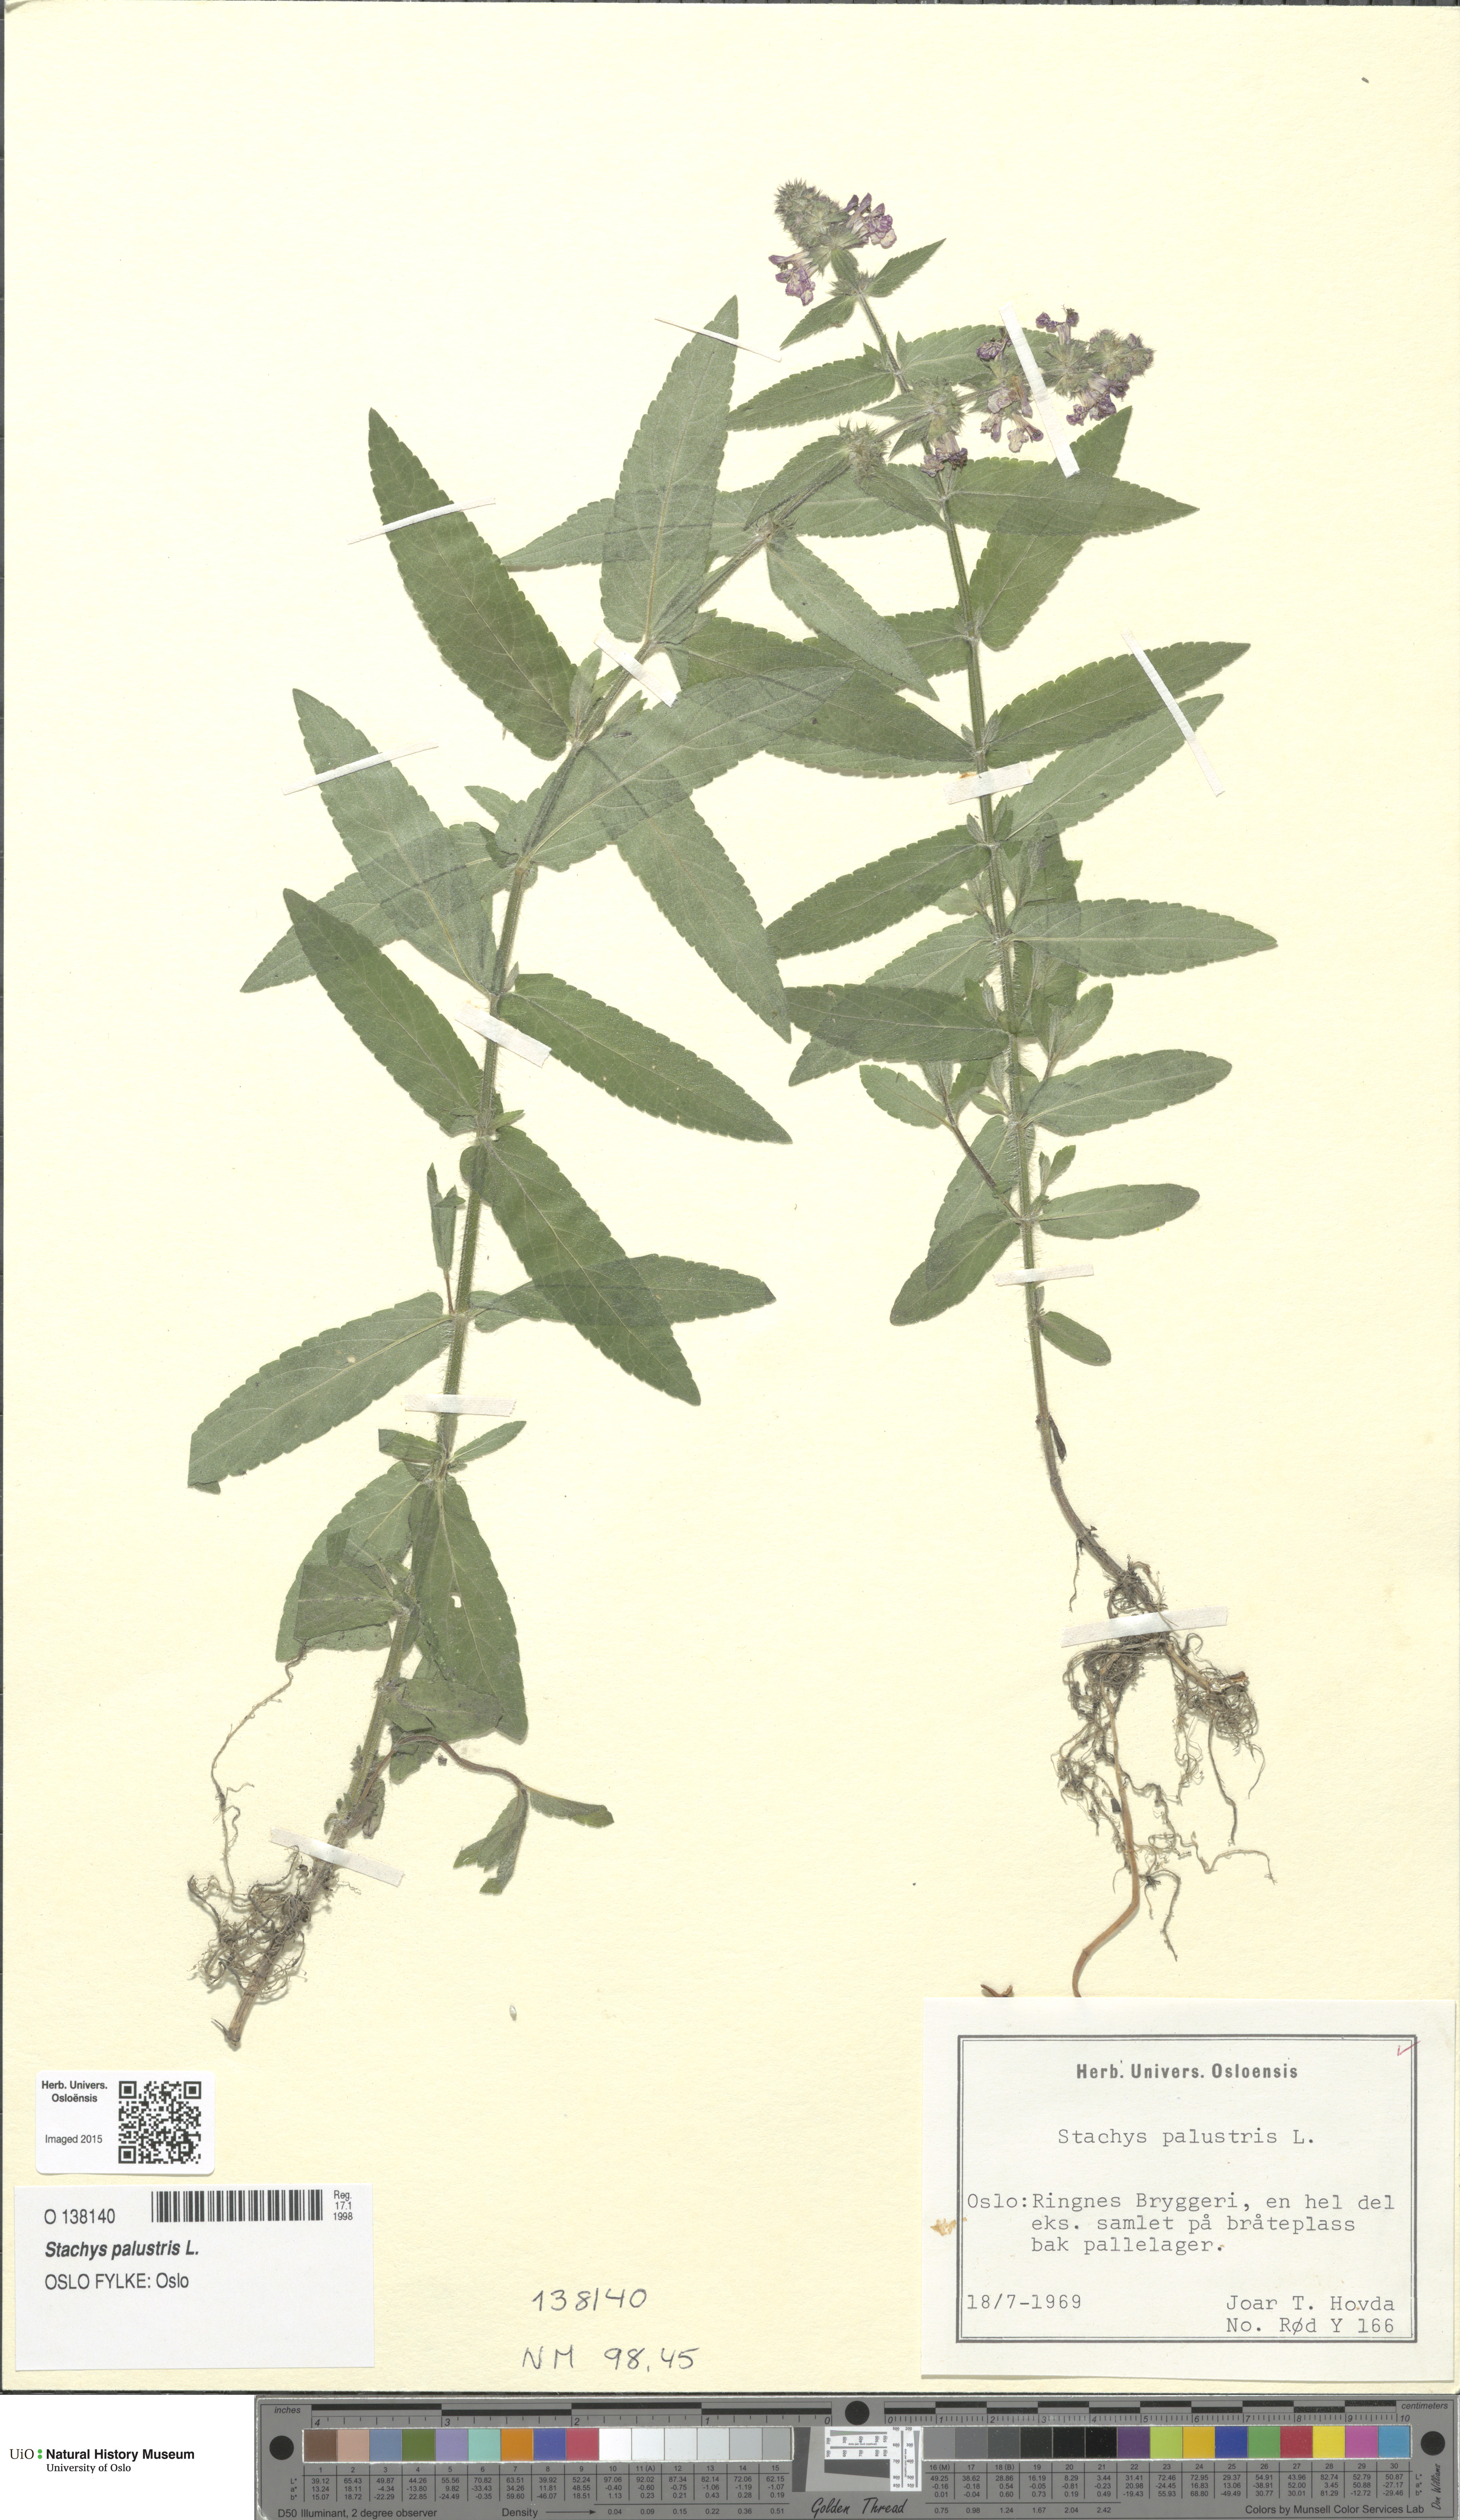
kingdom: Plantae
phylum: Tracheophyta
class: Magnoliopsida
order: Lamiales
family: Lamiaceae
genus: Stachys
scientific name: Stachys palustris
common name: Marsh woundwort
